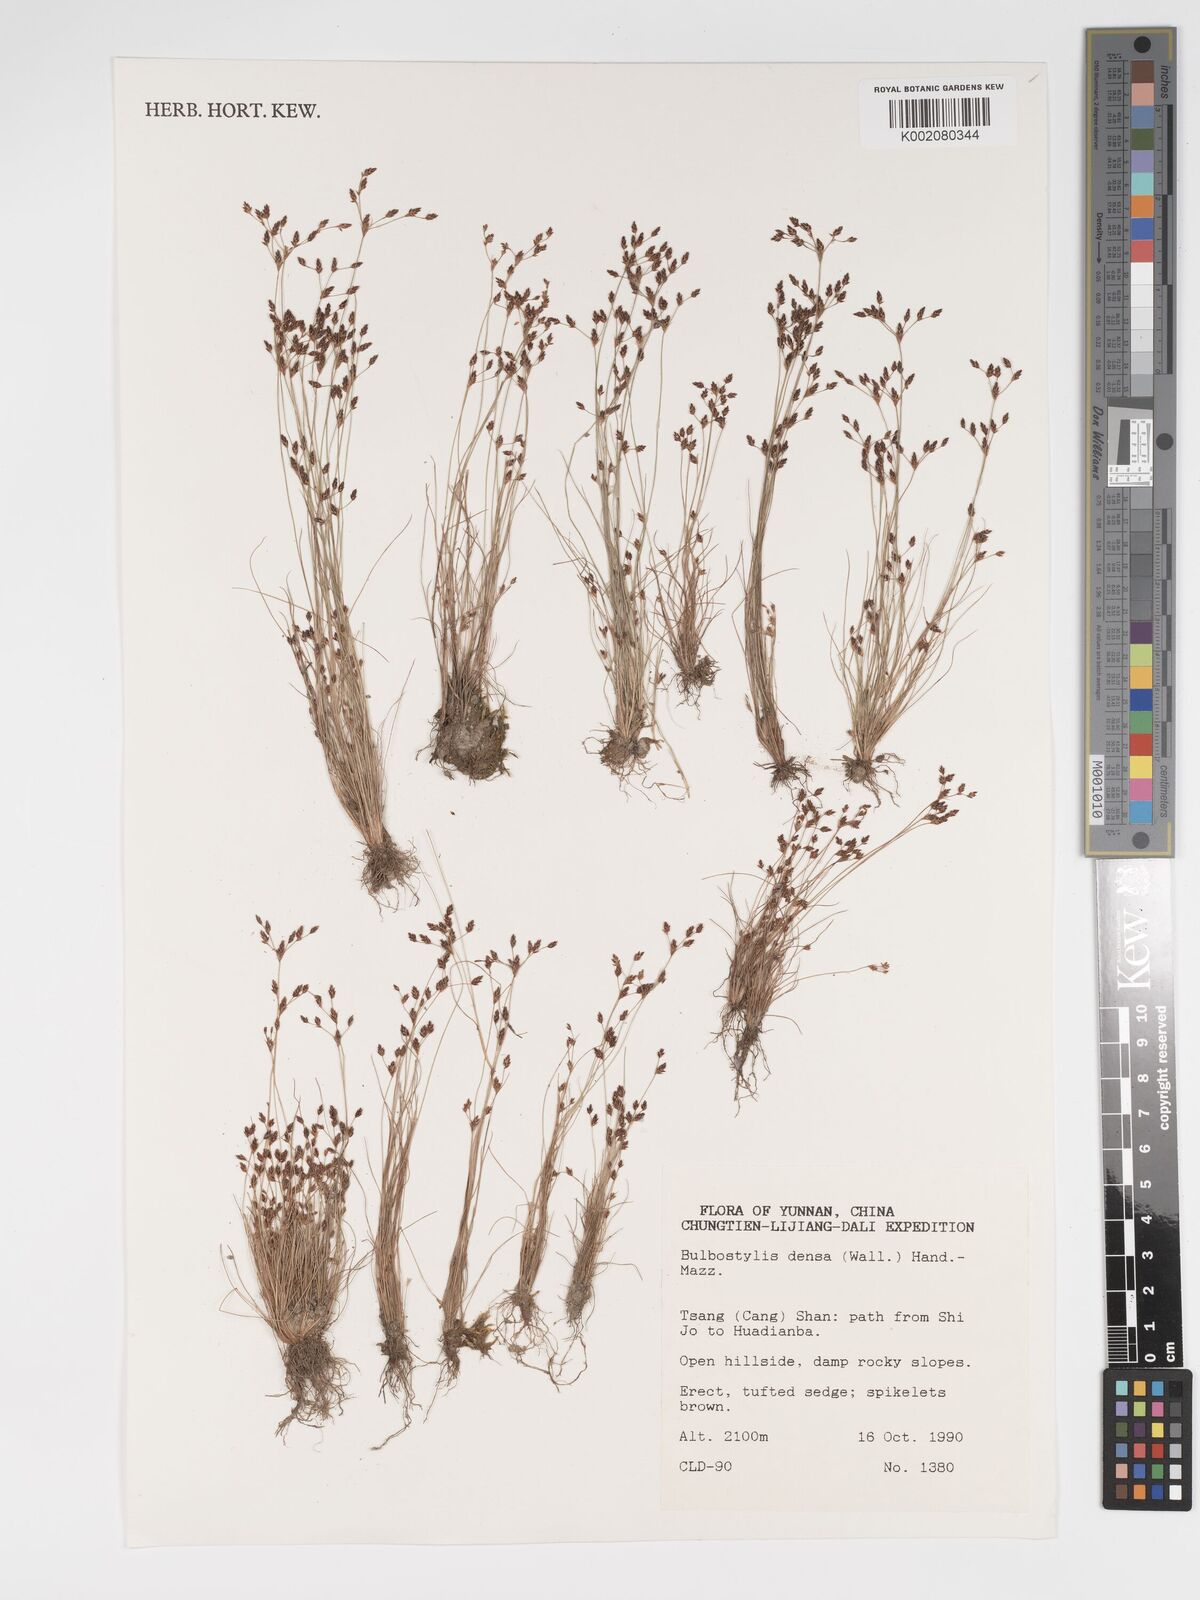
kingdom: Plantae
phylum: Tracheophyta
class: Liliopsida
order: Poales
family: Cyperaceae
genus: Bulbostylis
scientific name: Bulbostylis densa
